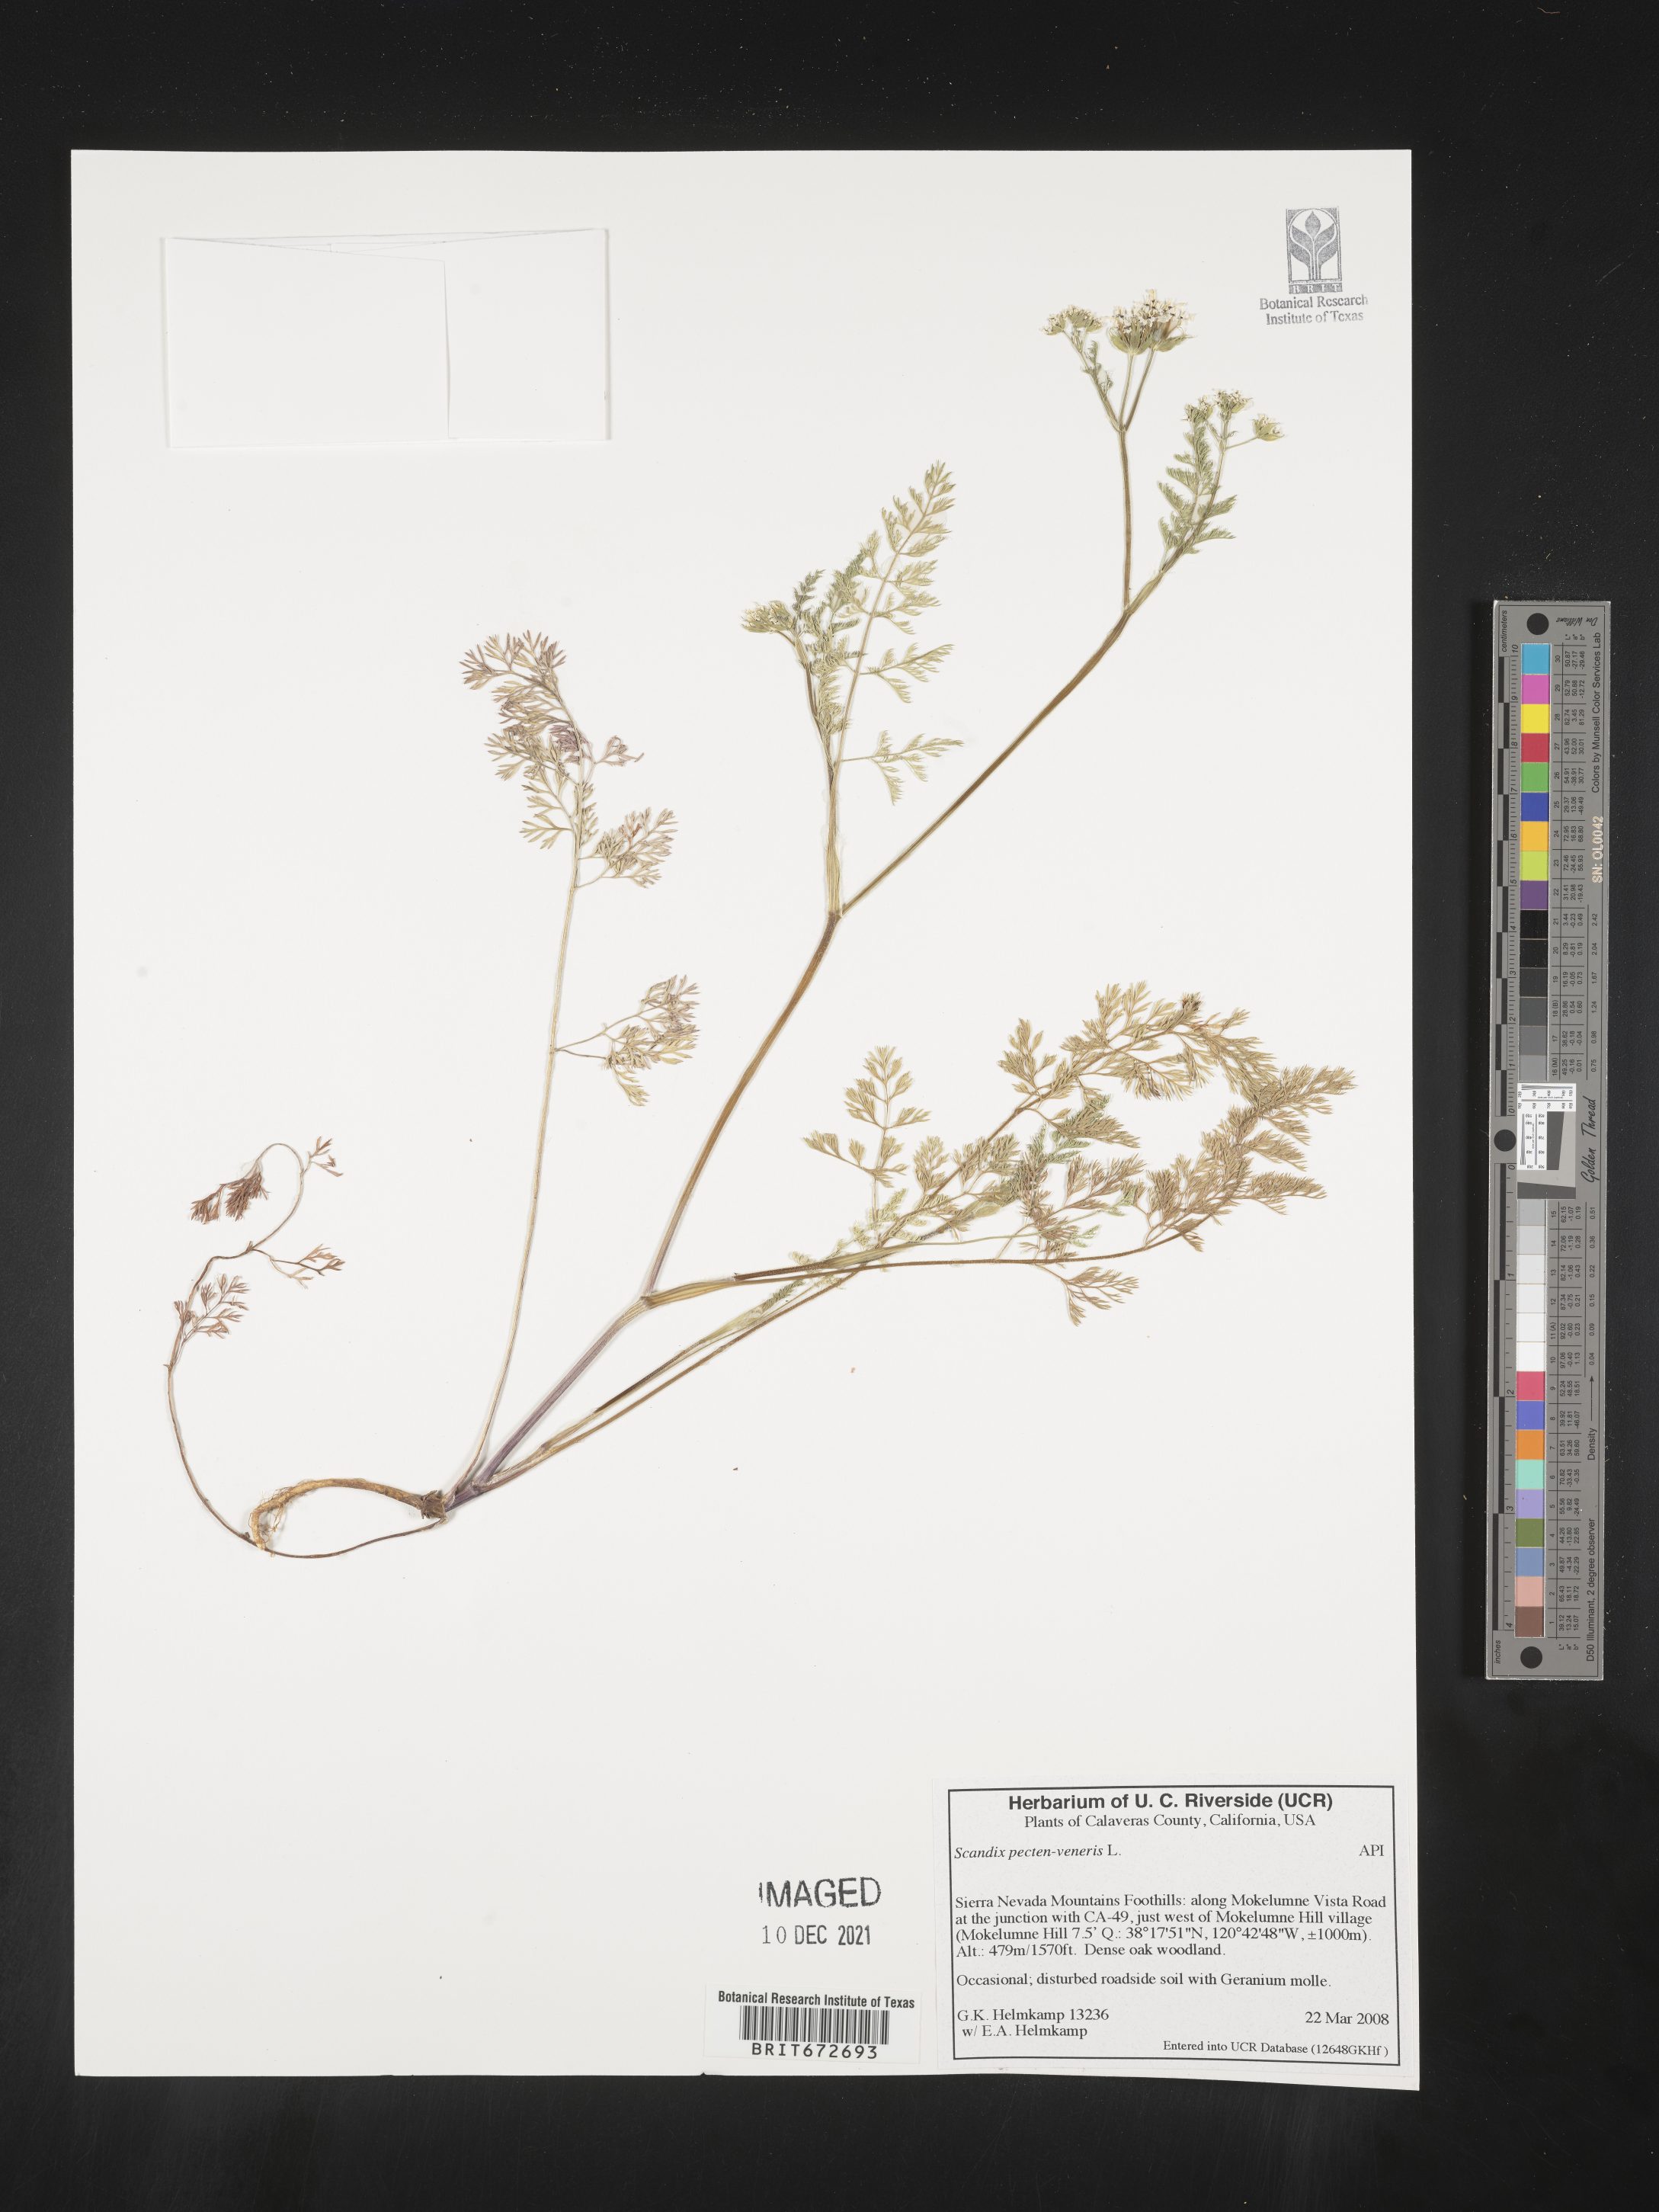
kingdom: Plantae
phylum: Tracheophyta
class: Magnoliopsida
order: Apiales
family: Apiaceae
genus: Scandix
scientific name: Scandix
